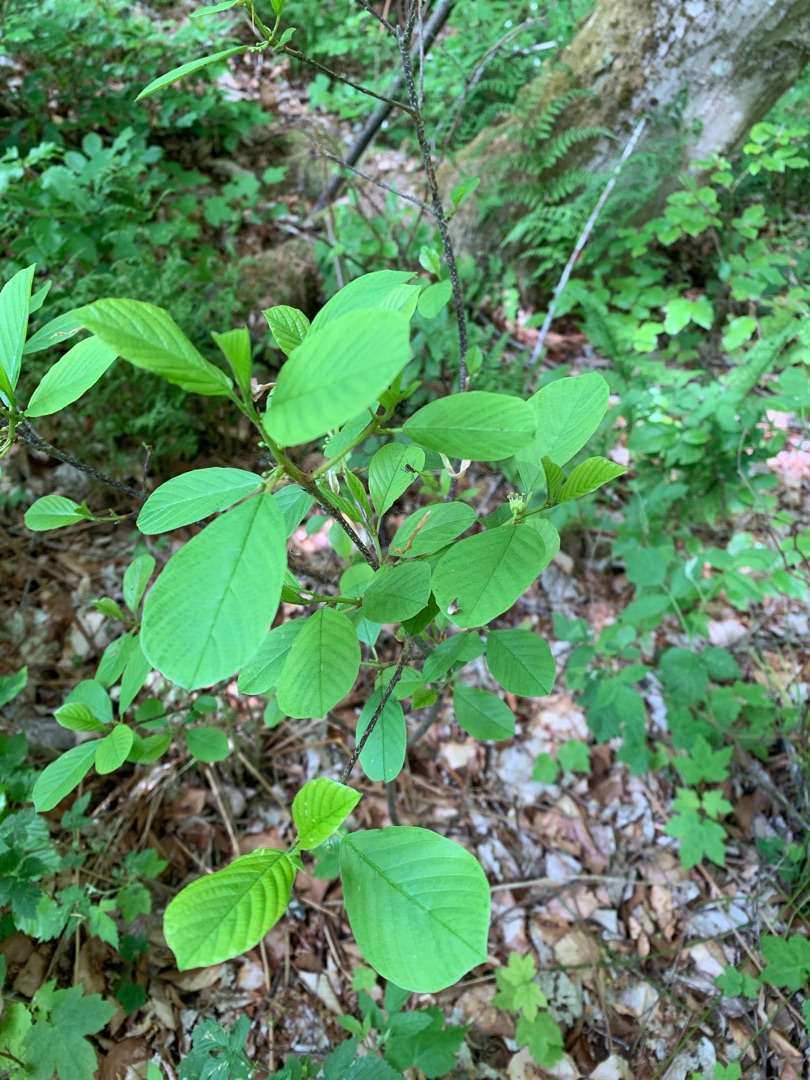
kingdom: Plantae
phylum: Tracheophyta
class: Magnoliopsida
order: Rosales
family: Rhamnaceae
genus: Frangula
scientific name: Frangula alnus
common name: Tørst
